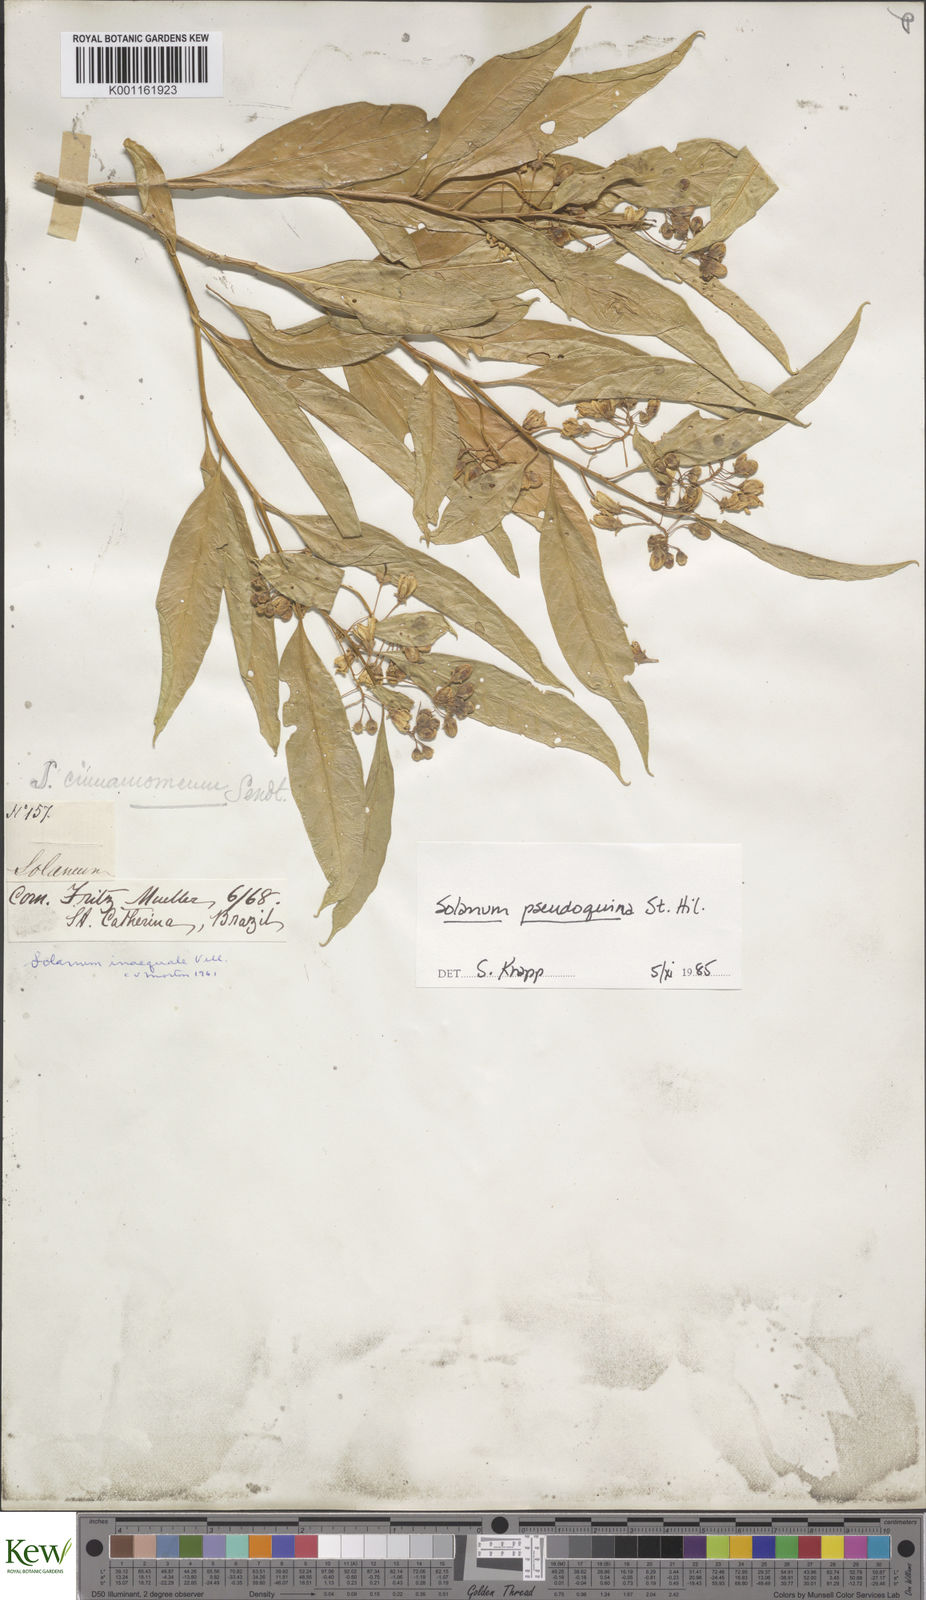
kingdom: Plantae
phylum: Tracheophyta
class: Magnoliopsida
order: Solanales
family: Solanaceae
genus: Solanum
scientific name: Solanum pseudoquina
